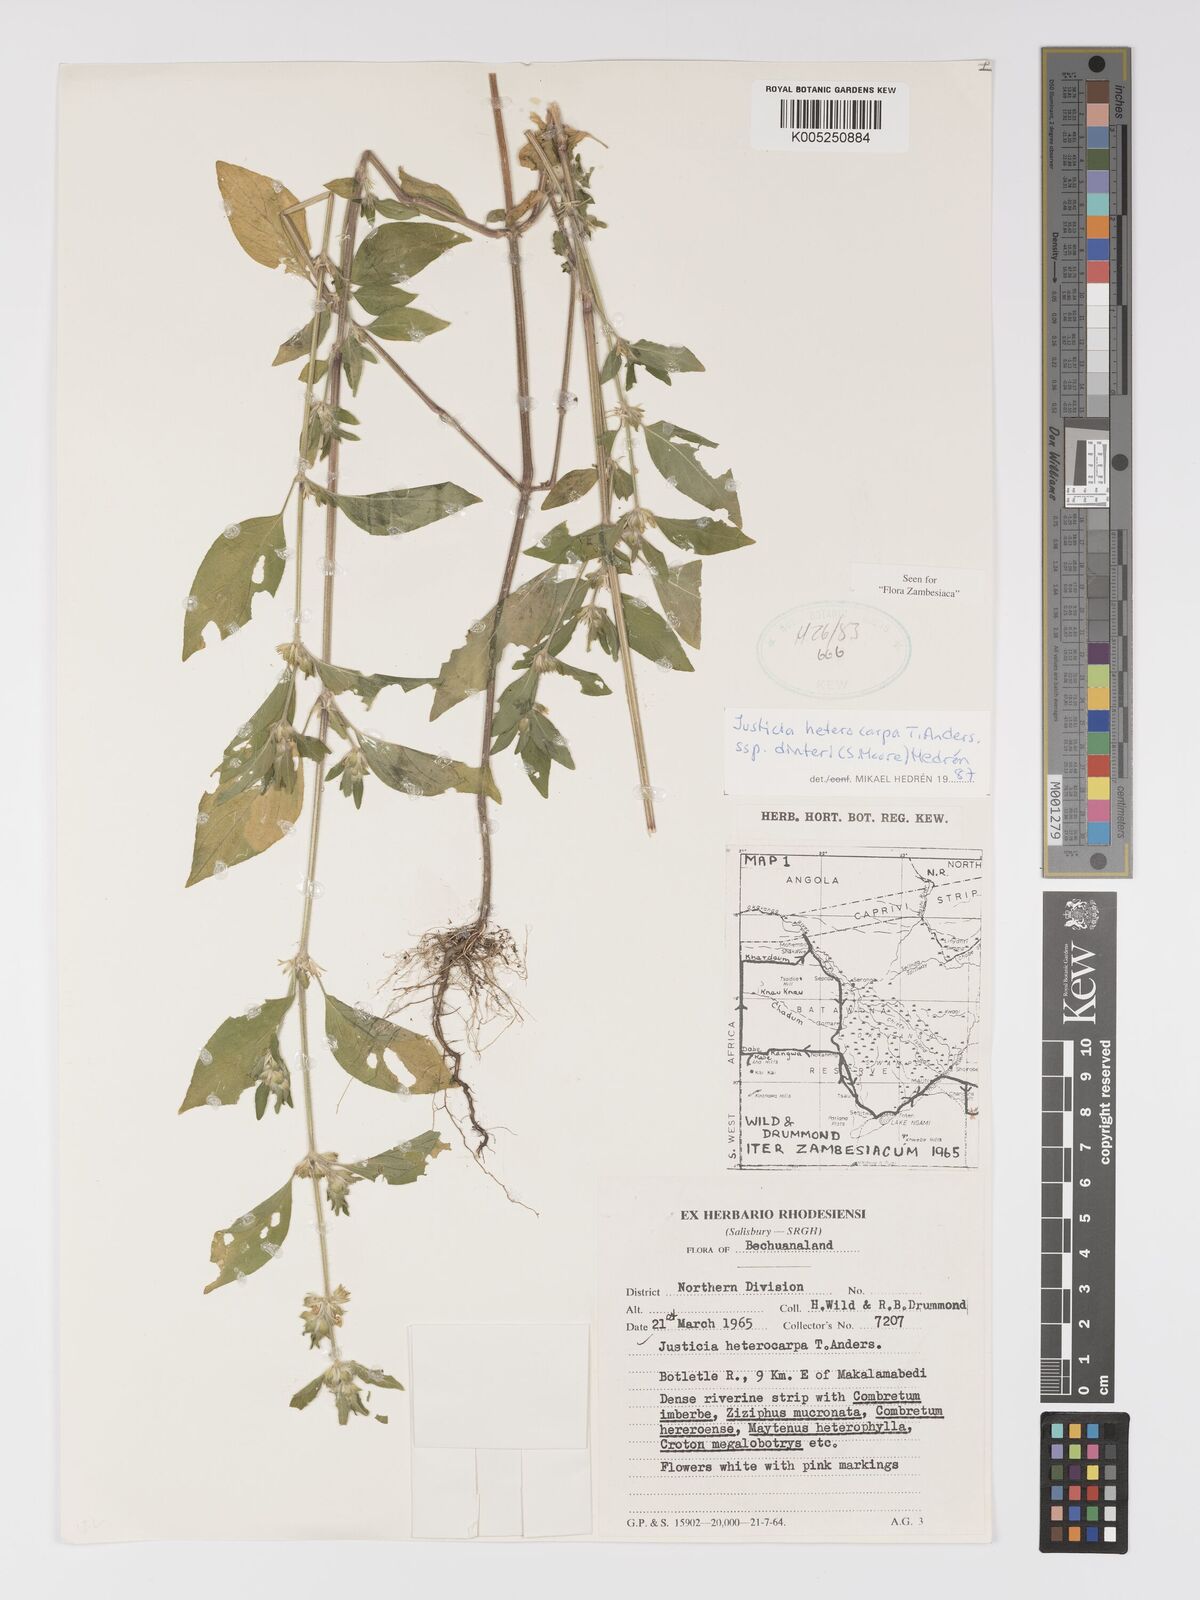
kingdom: Plantae
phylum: Tracheophyta
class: Magnoliopsida
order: Lamiales
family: Acanthaceae
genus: Justicia
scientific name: Justicia heterocarpa
